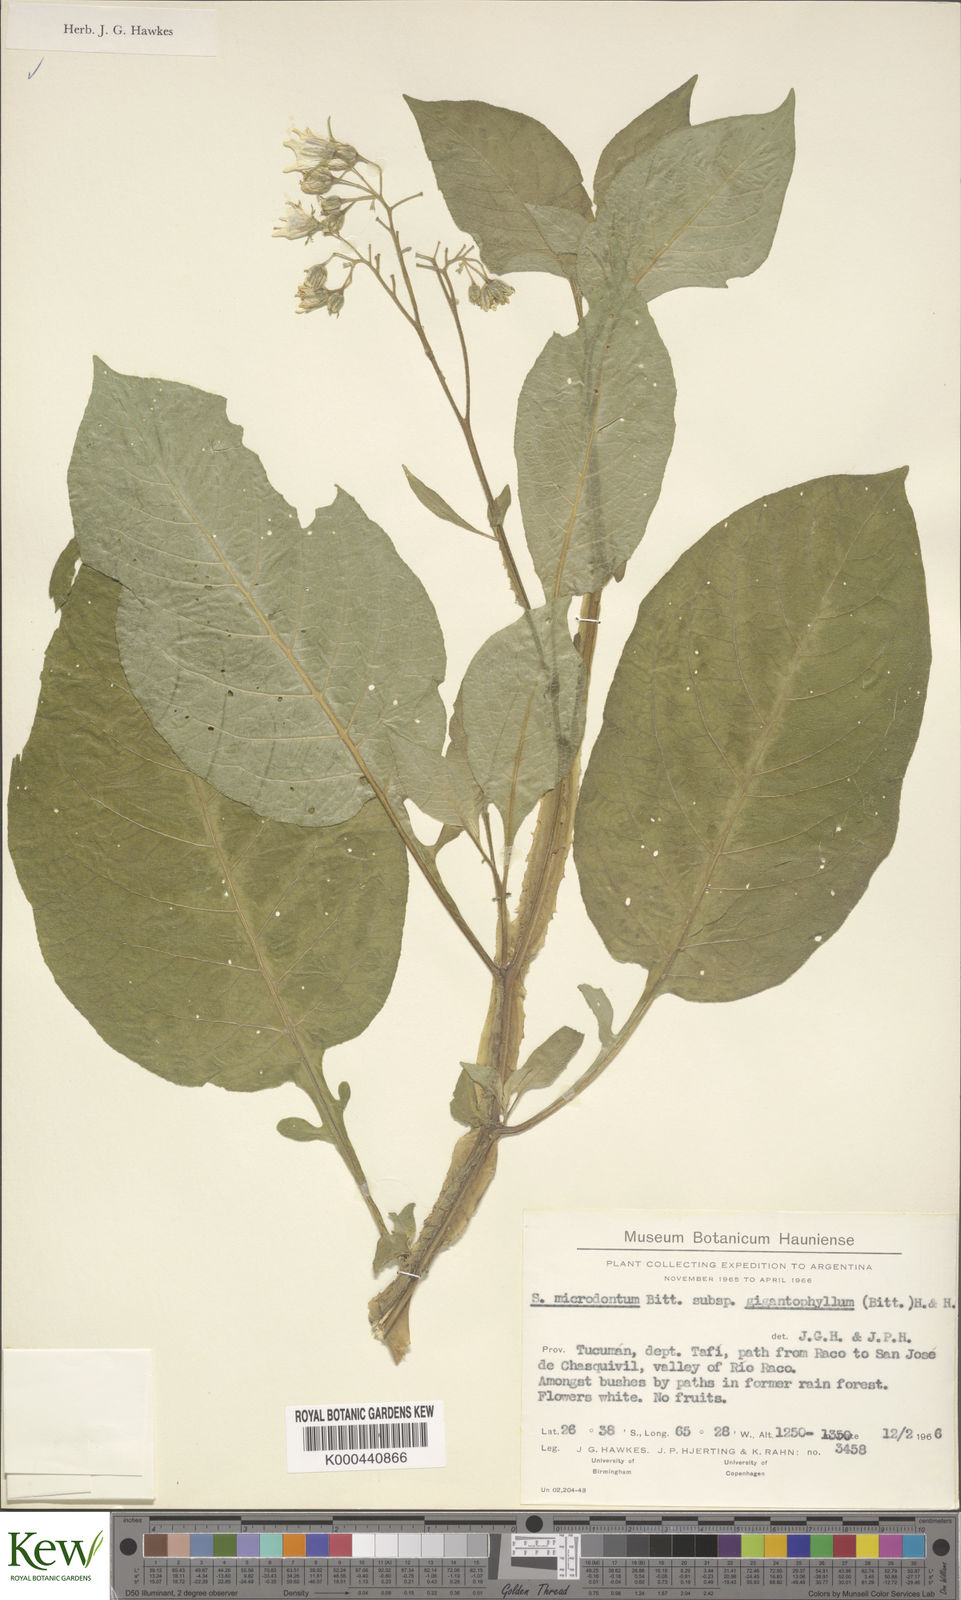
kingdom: Plantae
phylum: Tracheophyta
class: Magnoliopsida
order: Solanales
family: Solanaceae
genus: Solanum
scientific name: Solanum microdontum
